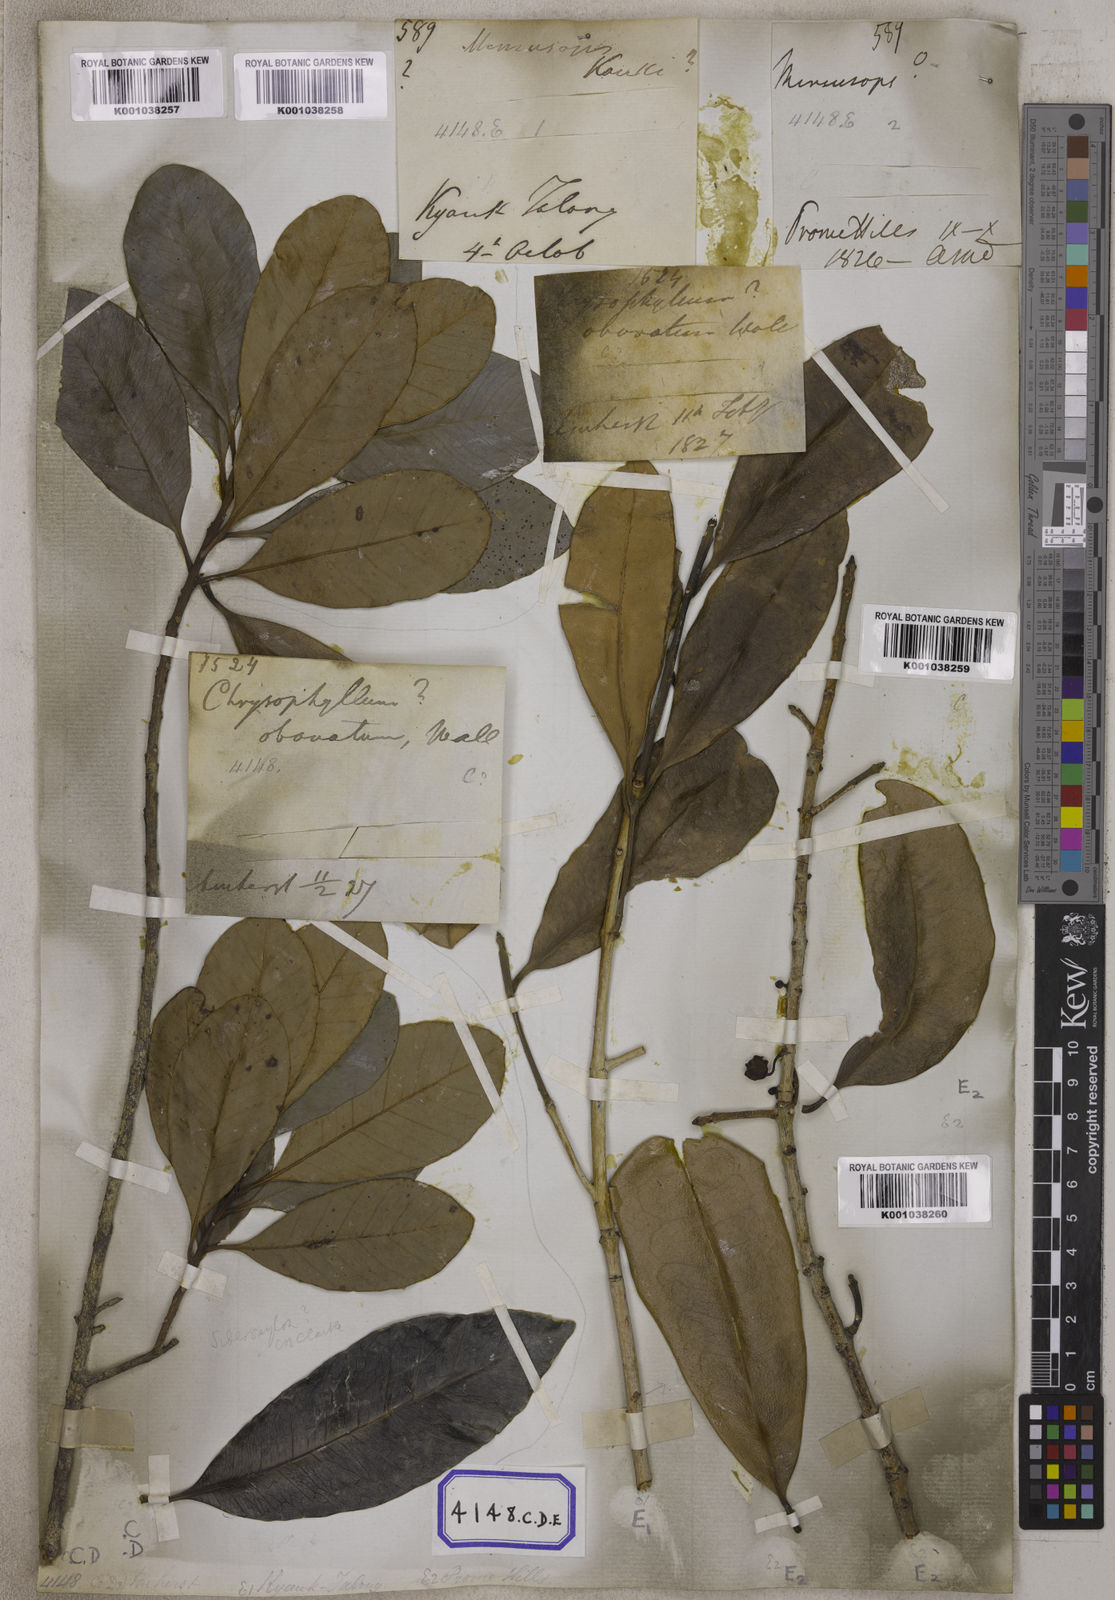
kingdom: Plantae
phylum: Tracheophyta
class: Magnoliopsida
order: Ericales
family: Sapotaceae
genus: Mimusops
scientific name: Mimusops
